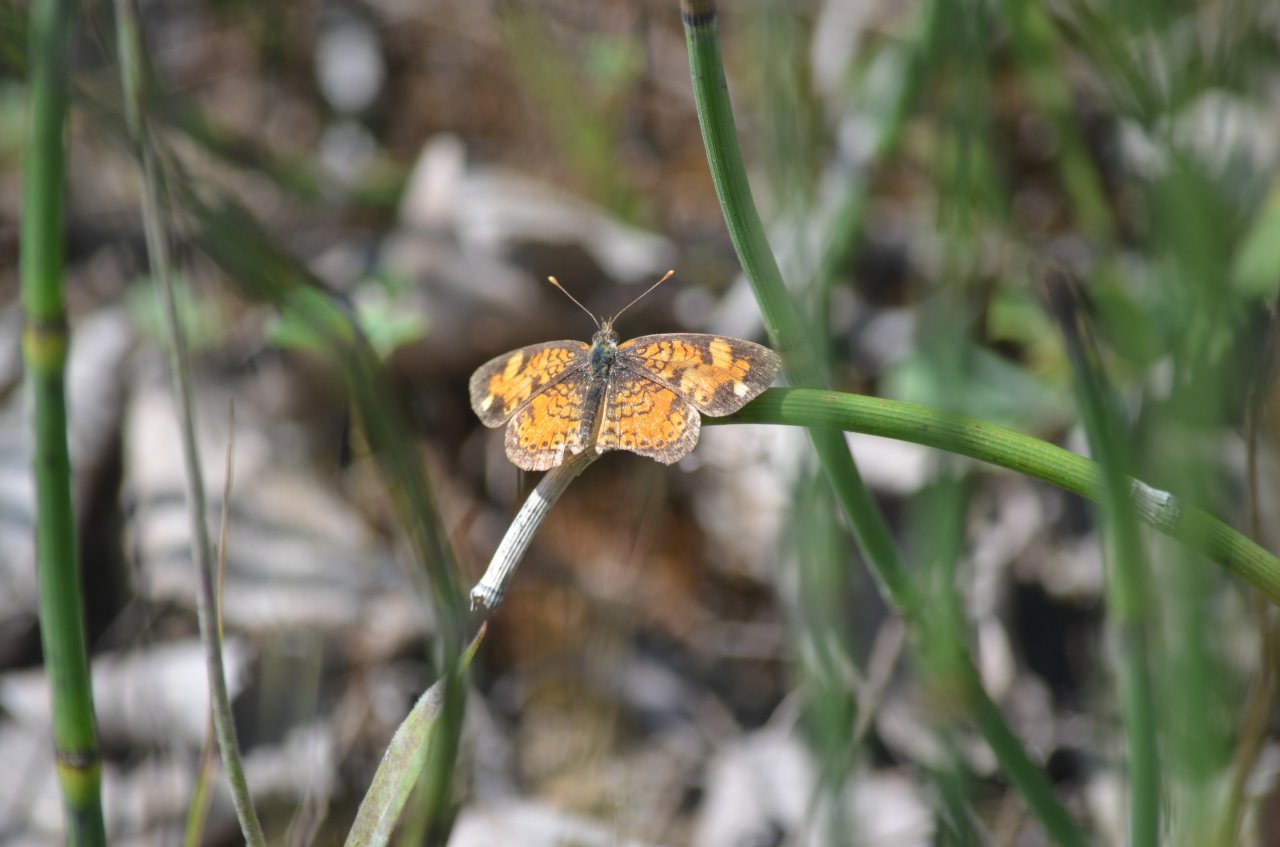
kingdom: Animalia
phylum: Arthropoda
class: Insecta
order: Lepidoptera
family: Nymphalidae
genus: Phyciodes
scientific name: Phyciodes tharos
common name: Northern Crescent
